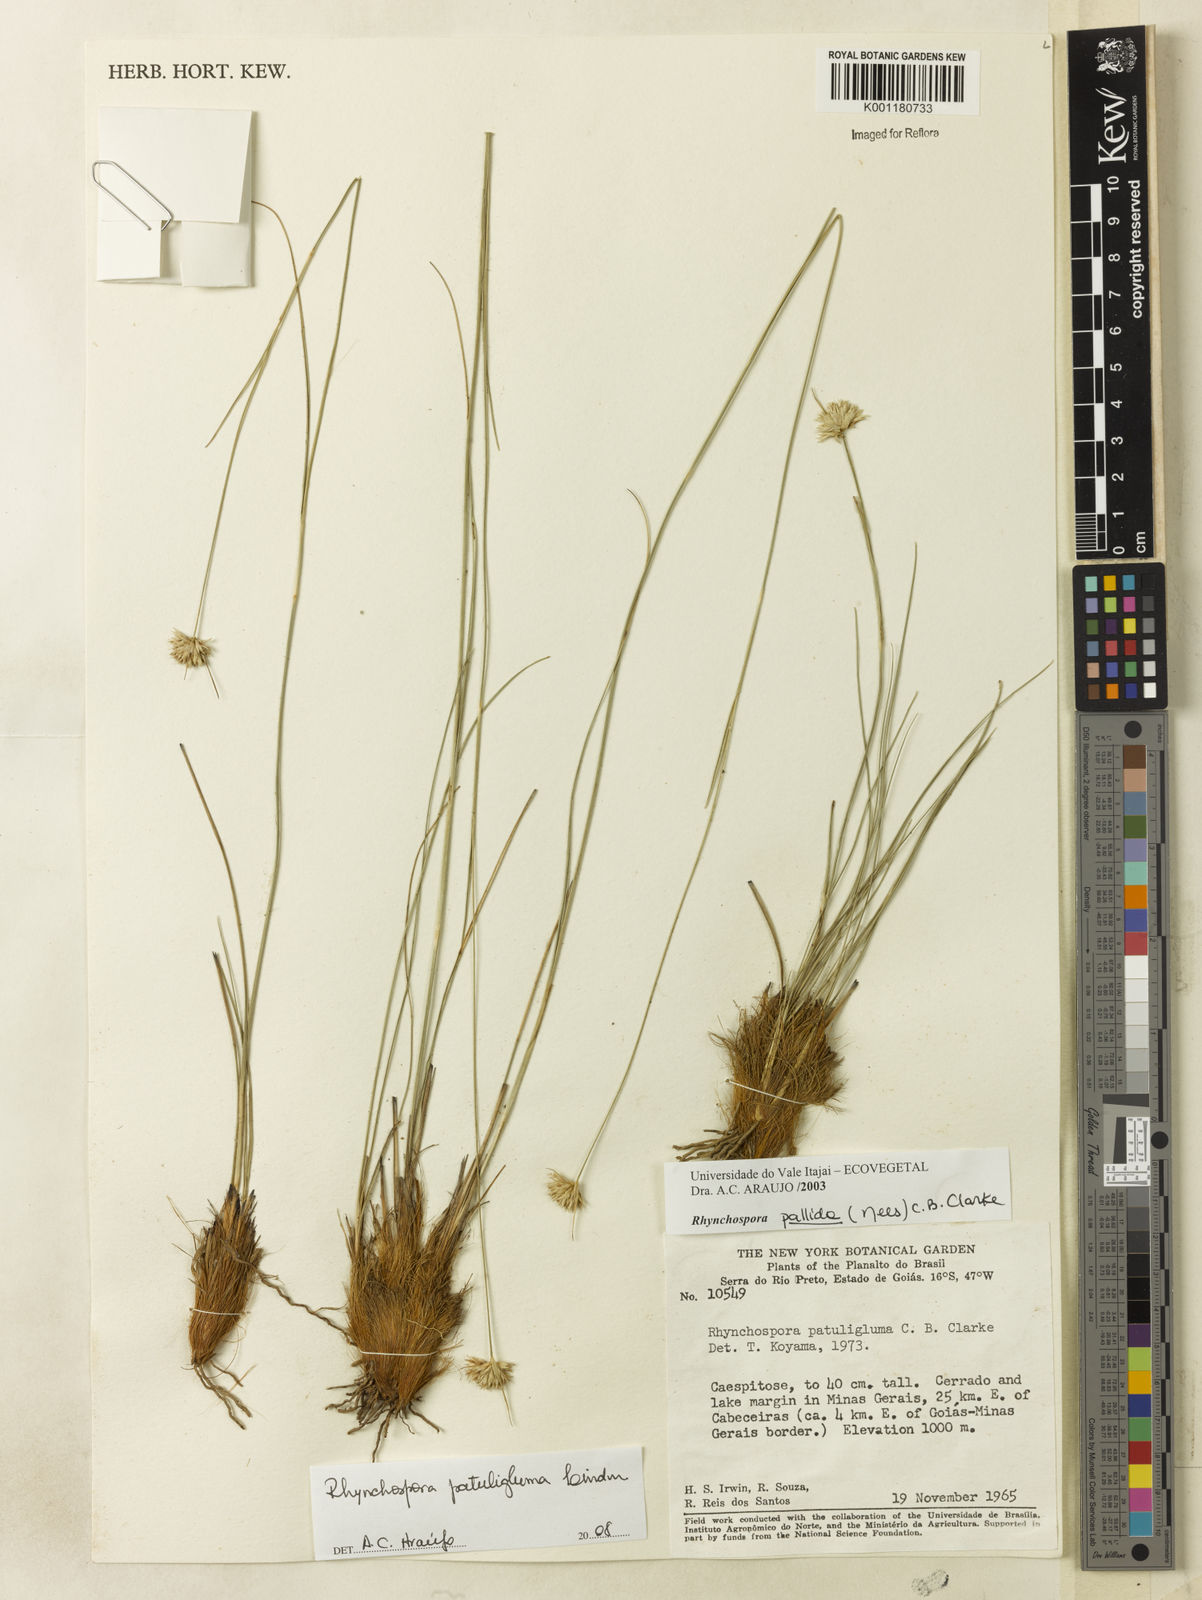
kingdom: Plantae
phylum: Tracheophyta
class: Liliopsida
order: Poales
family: Cyperaceae
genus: Rhynchospora
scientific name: Rhynchospora patuligluma
